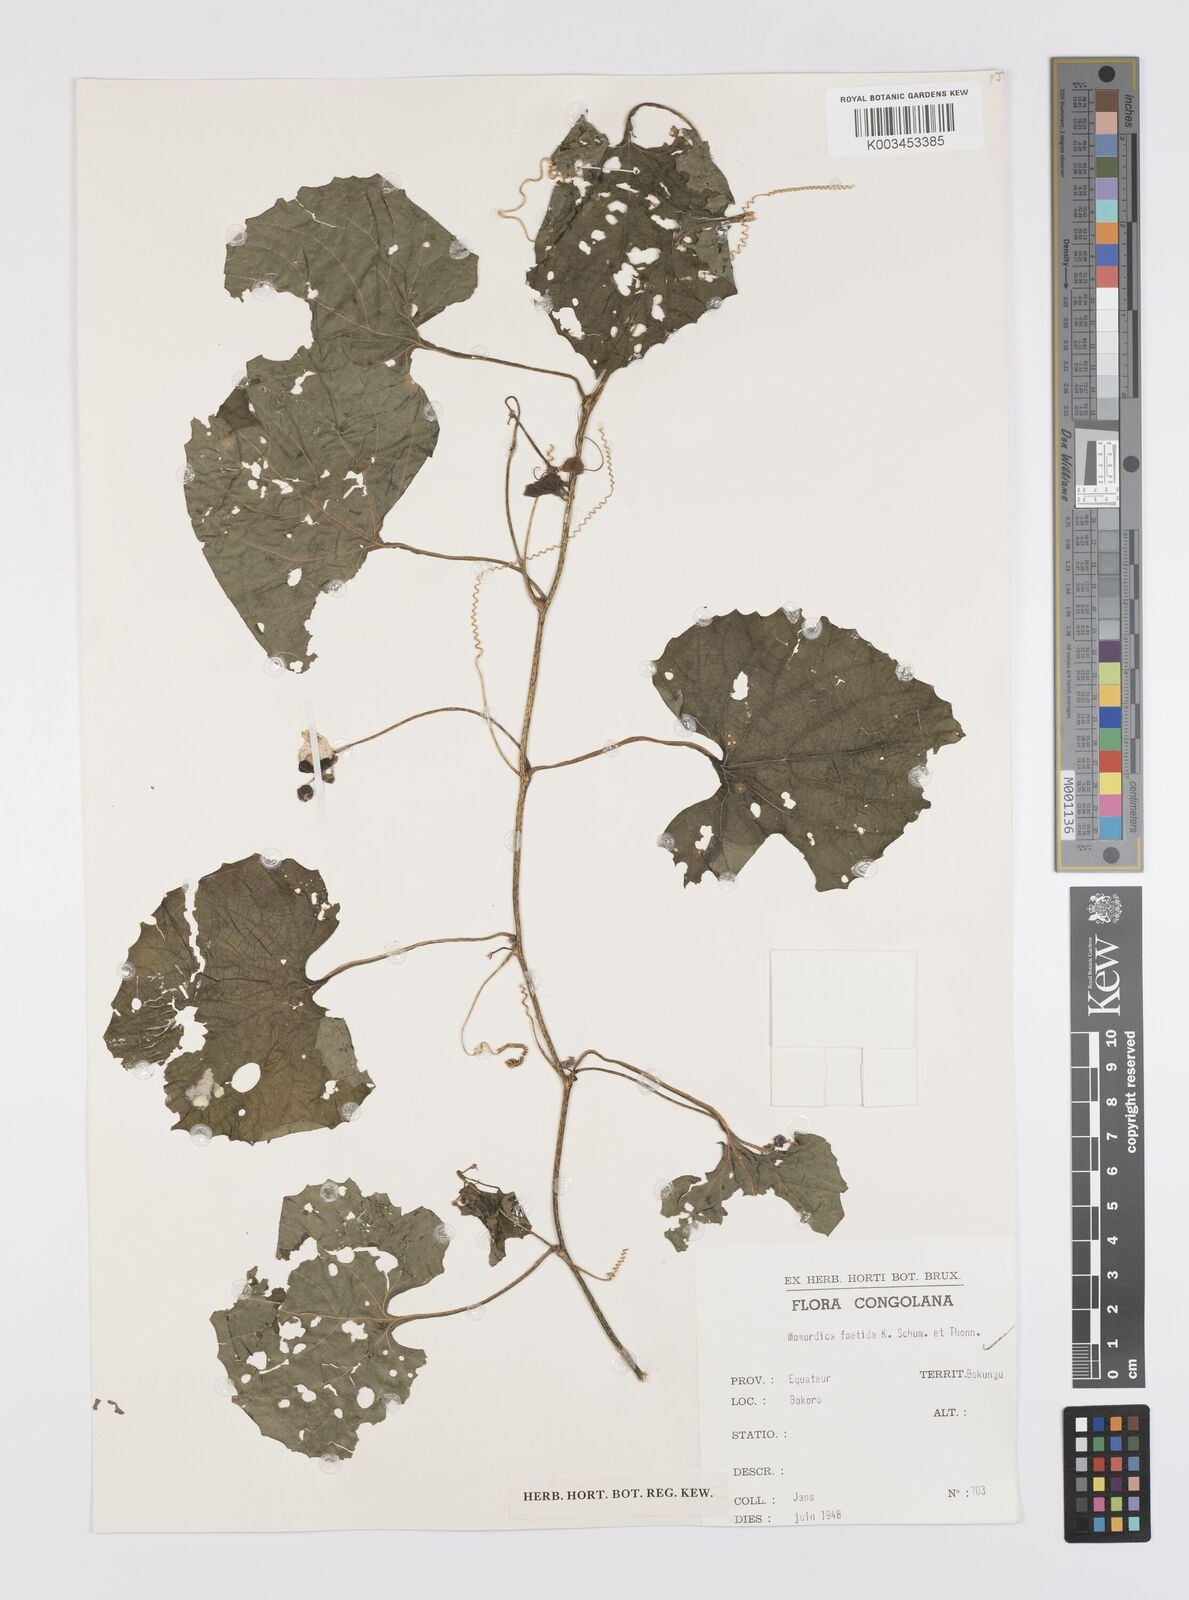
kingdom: Plantae
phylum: Tracheophyta
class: Magnoliopsida
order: Cucurbitales
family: Cucurbitaceae
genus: Momordica
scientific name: Momordica foetida
